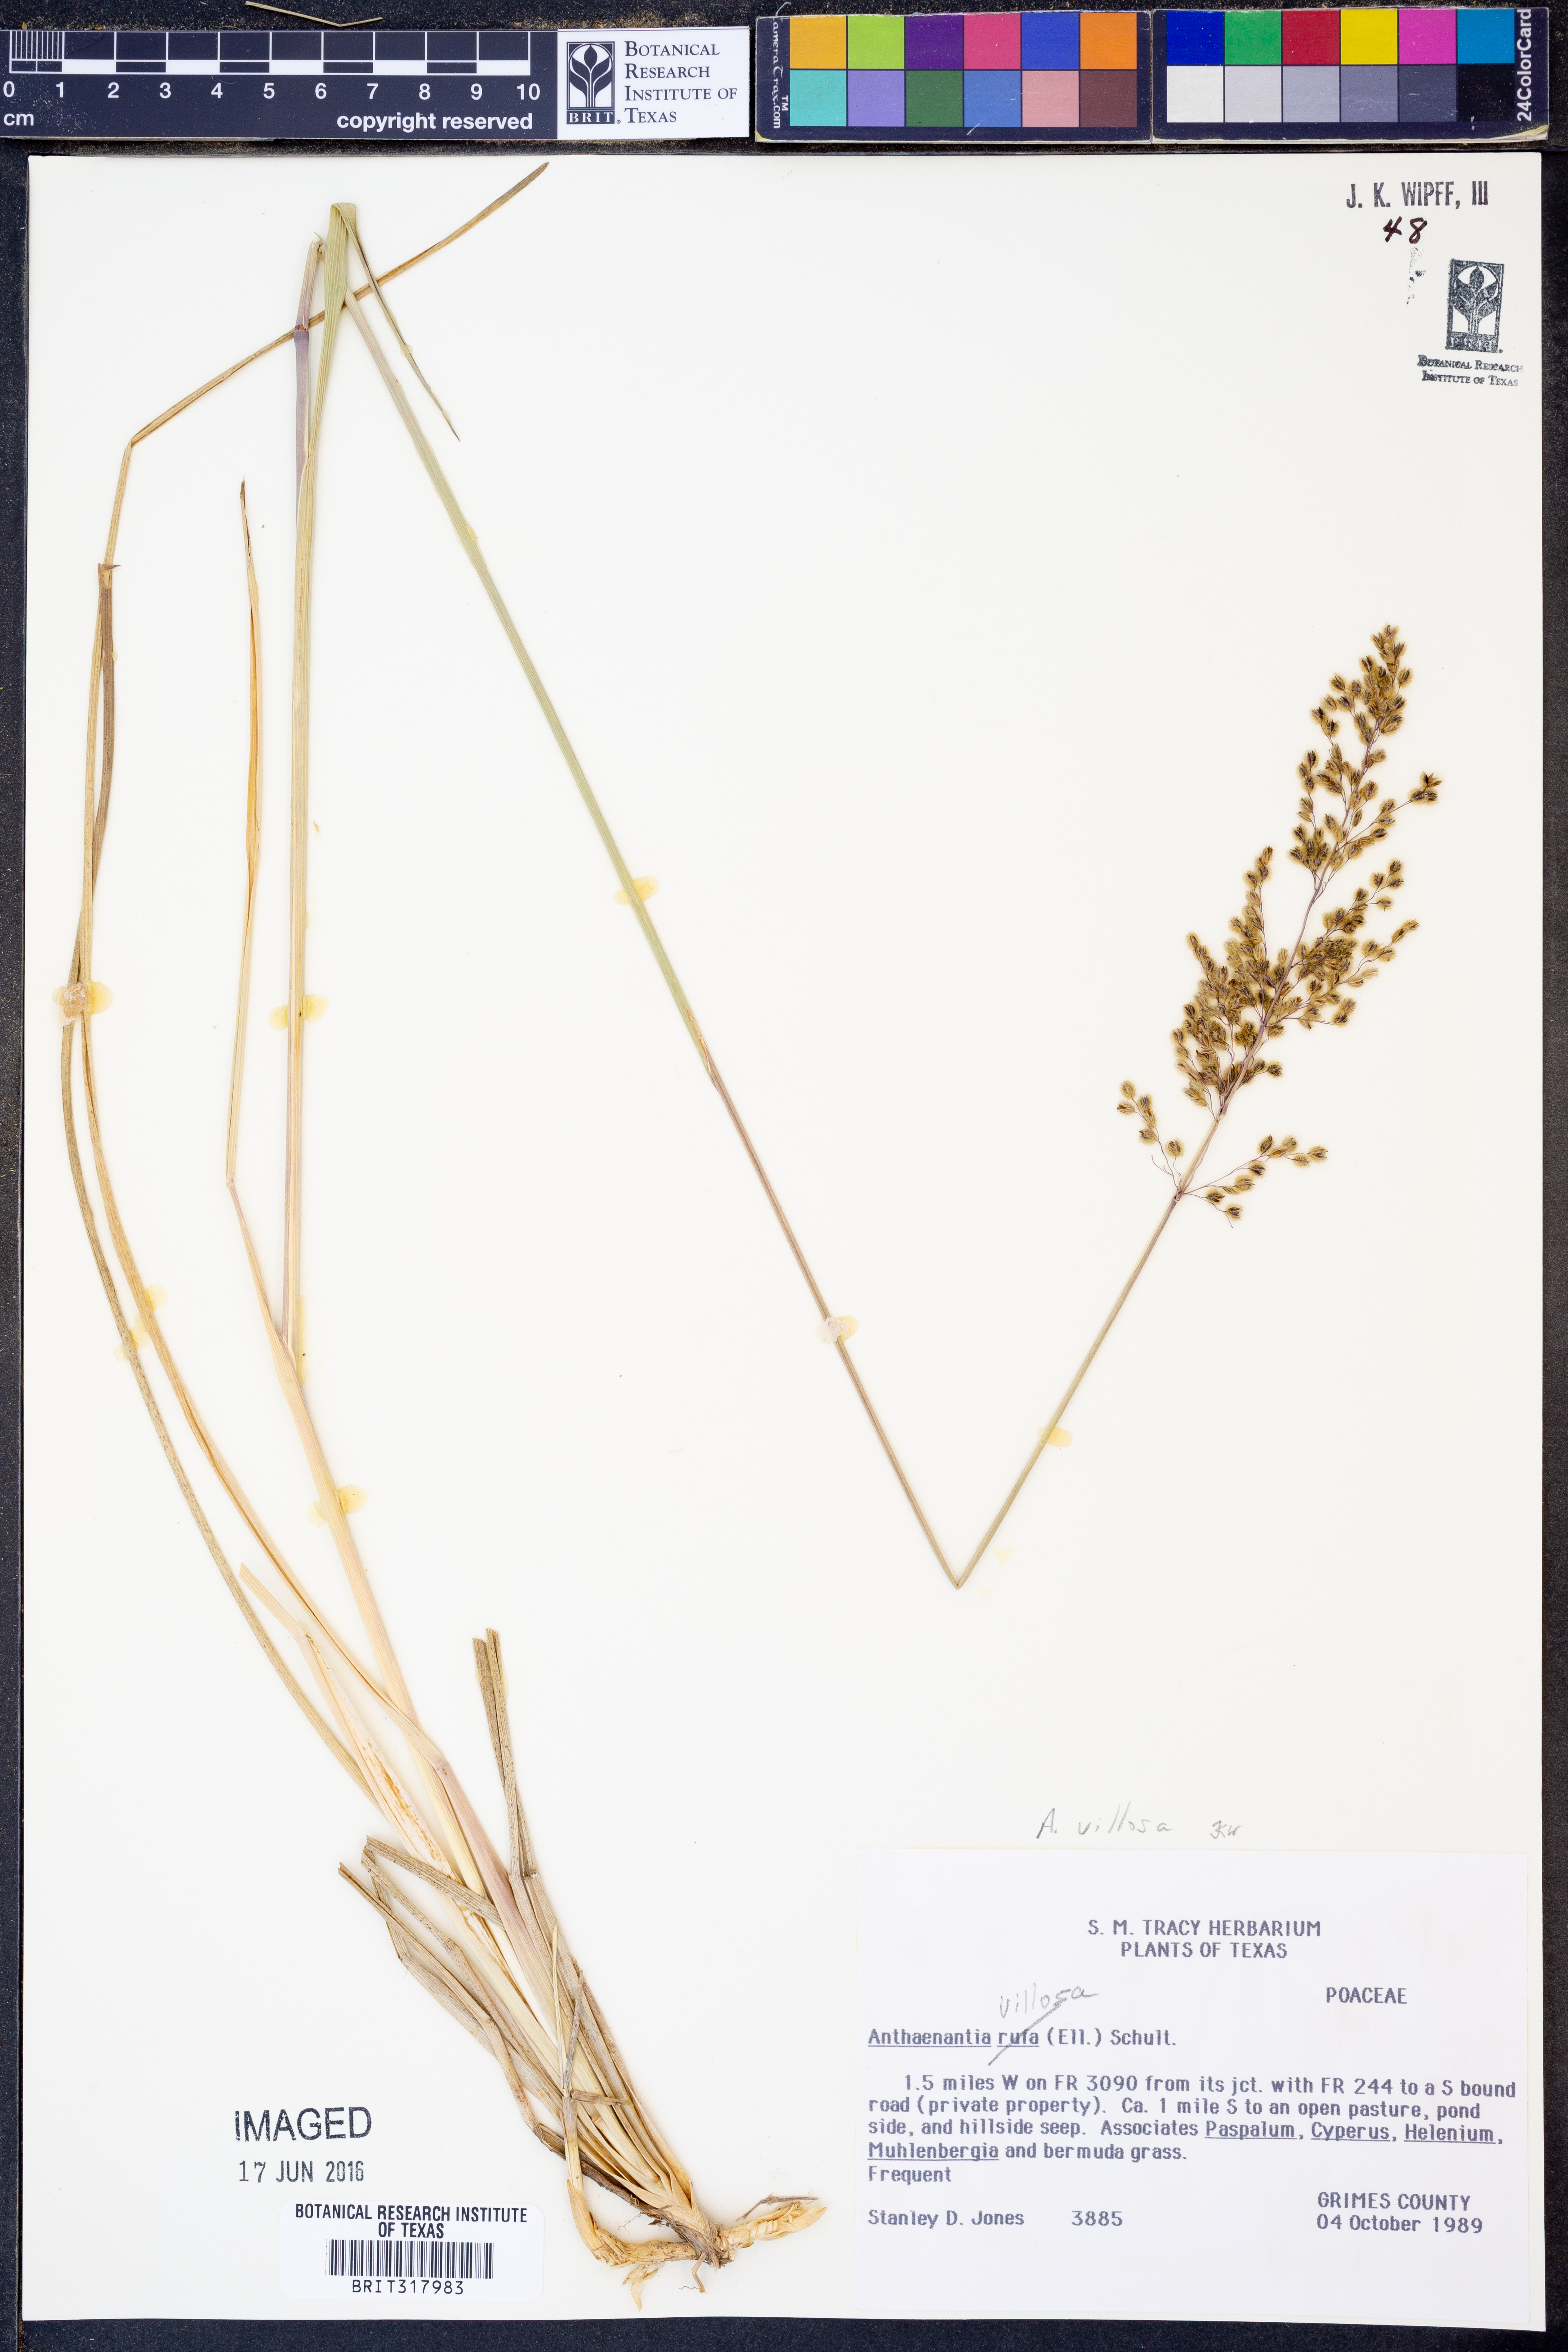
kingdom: Plantae
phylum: Tracheophyta
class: Liliopsida
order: Poales
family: Poaceae
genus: Anthenantia
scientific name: Anthenantia villosa
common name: Green silkyscale
